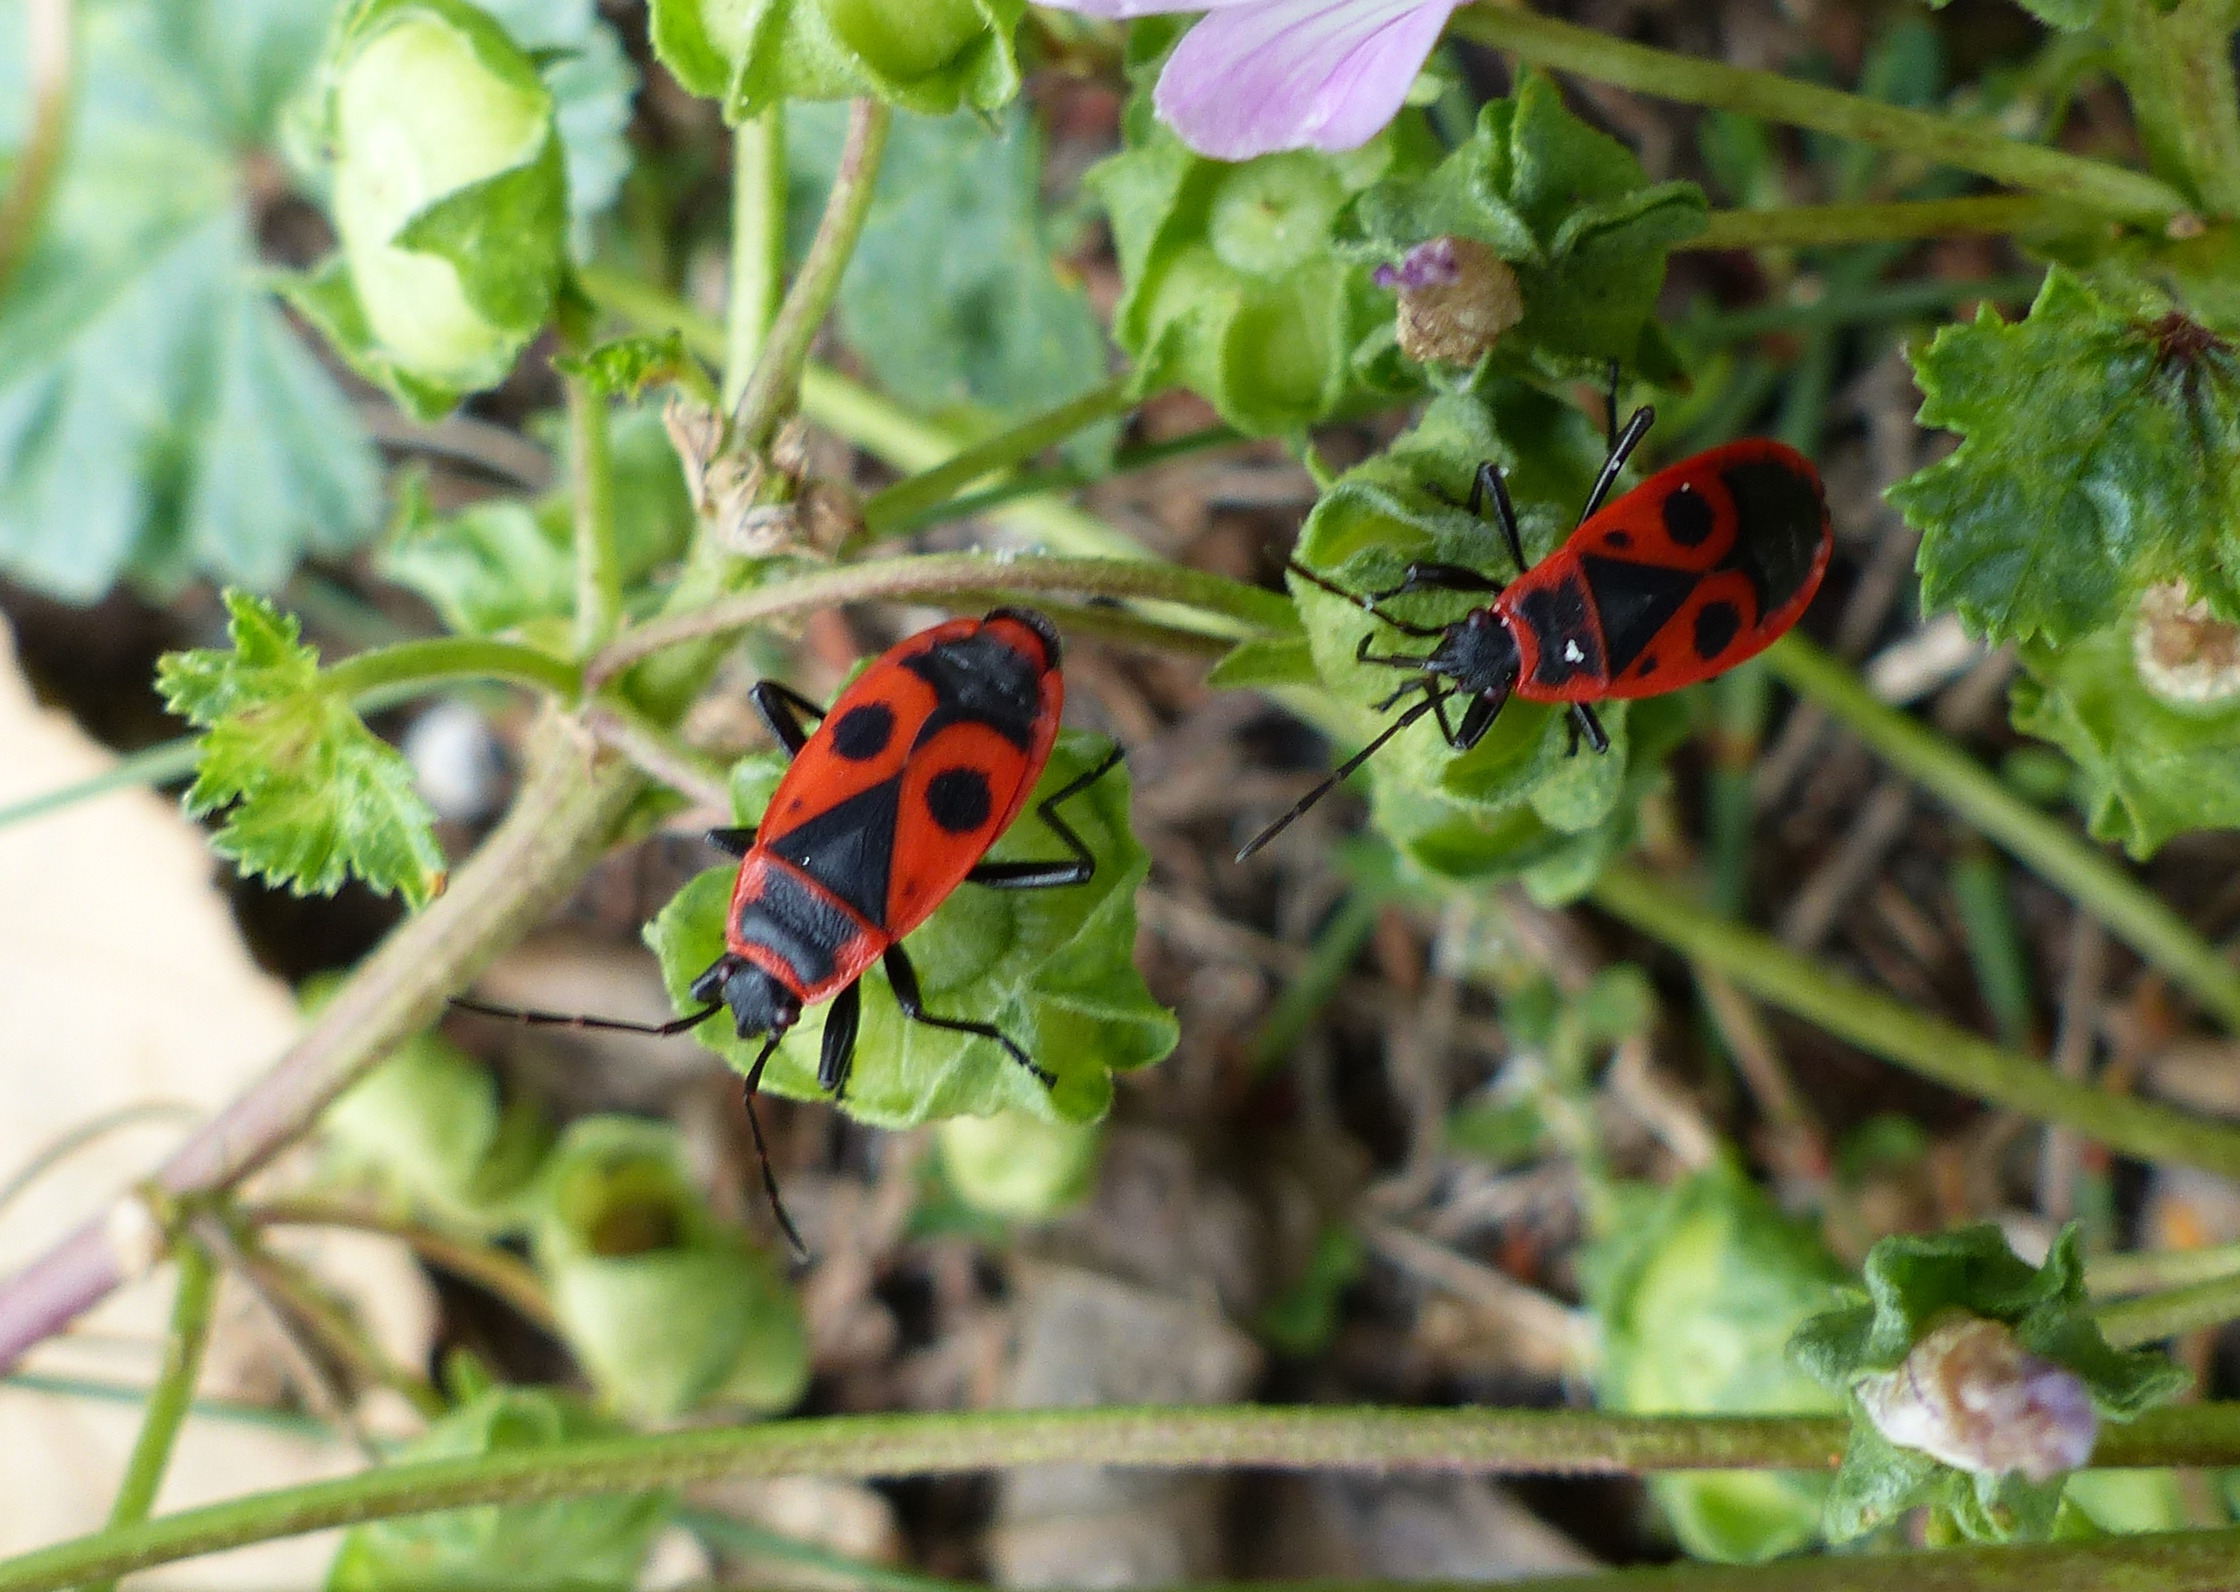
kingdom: Animalia
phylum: Arthropoda
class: Insecta
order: Hemiptera
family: Pyrrhocoridae
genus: Pyrrhocoris
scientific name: Pyrrhocoris apterus
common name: Ildtæge
